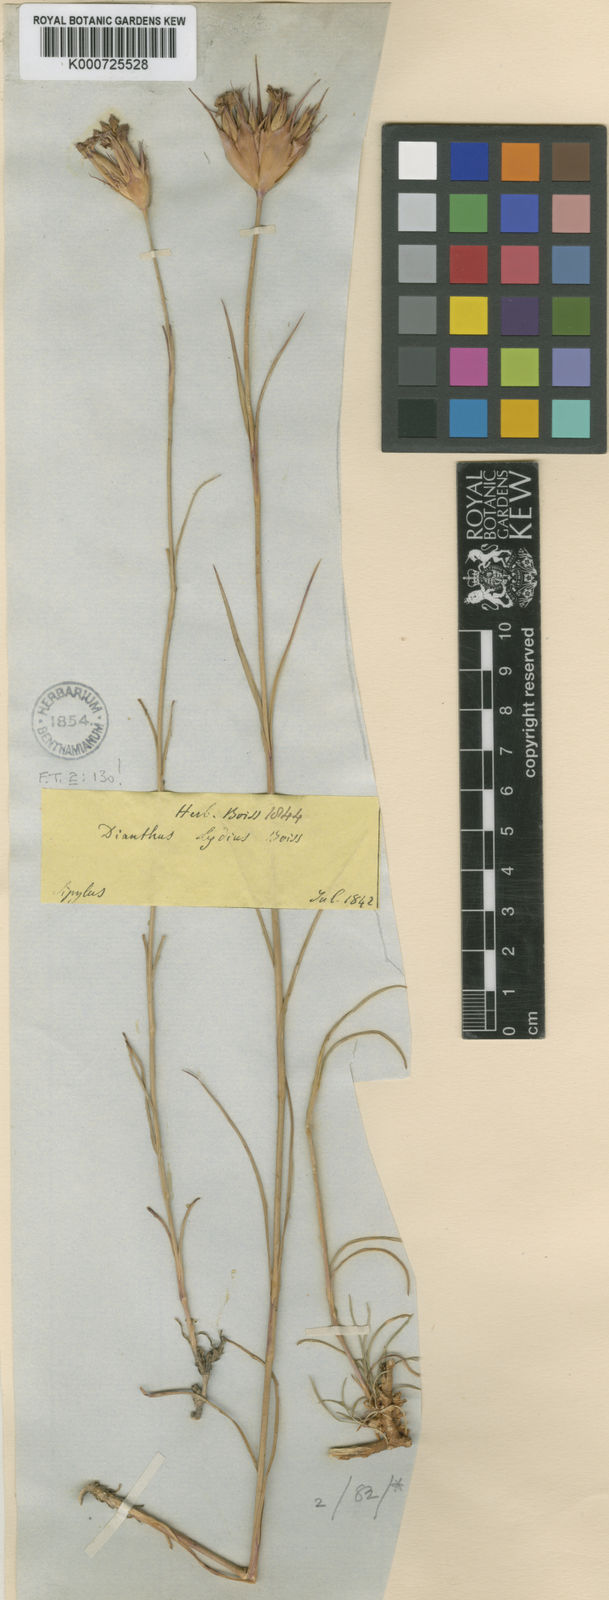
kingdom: Plantae
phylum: Tracheophyta
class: Magnoliopsida
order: Caryophyllales
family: Caryophyllaceae
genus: Dianthus
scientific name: Dianthus lydus
